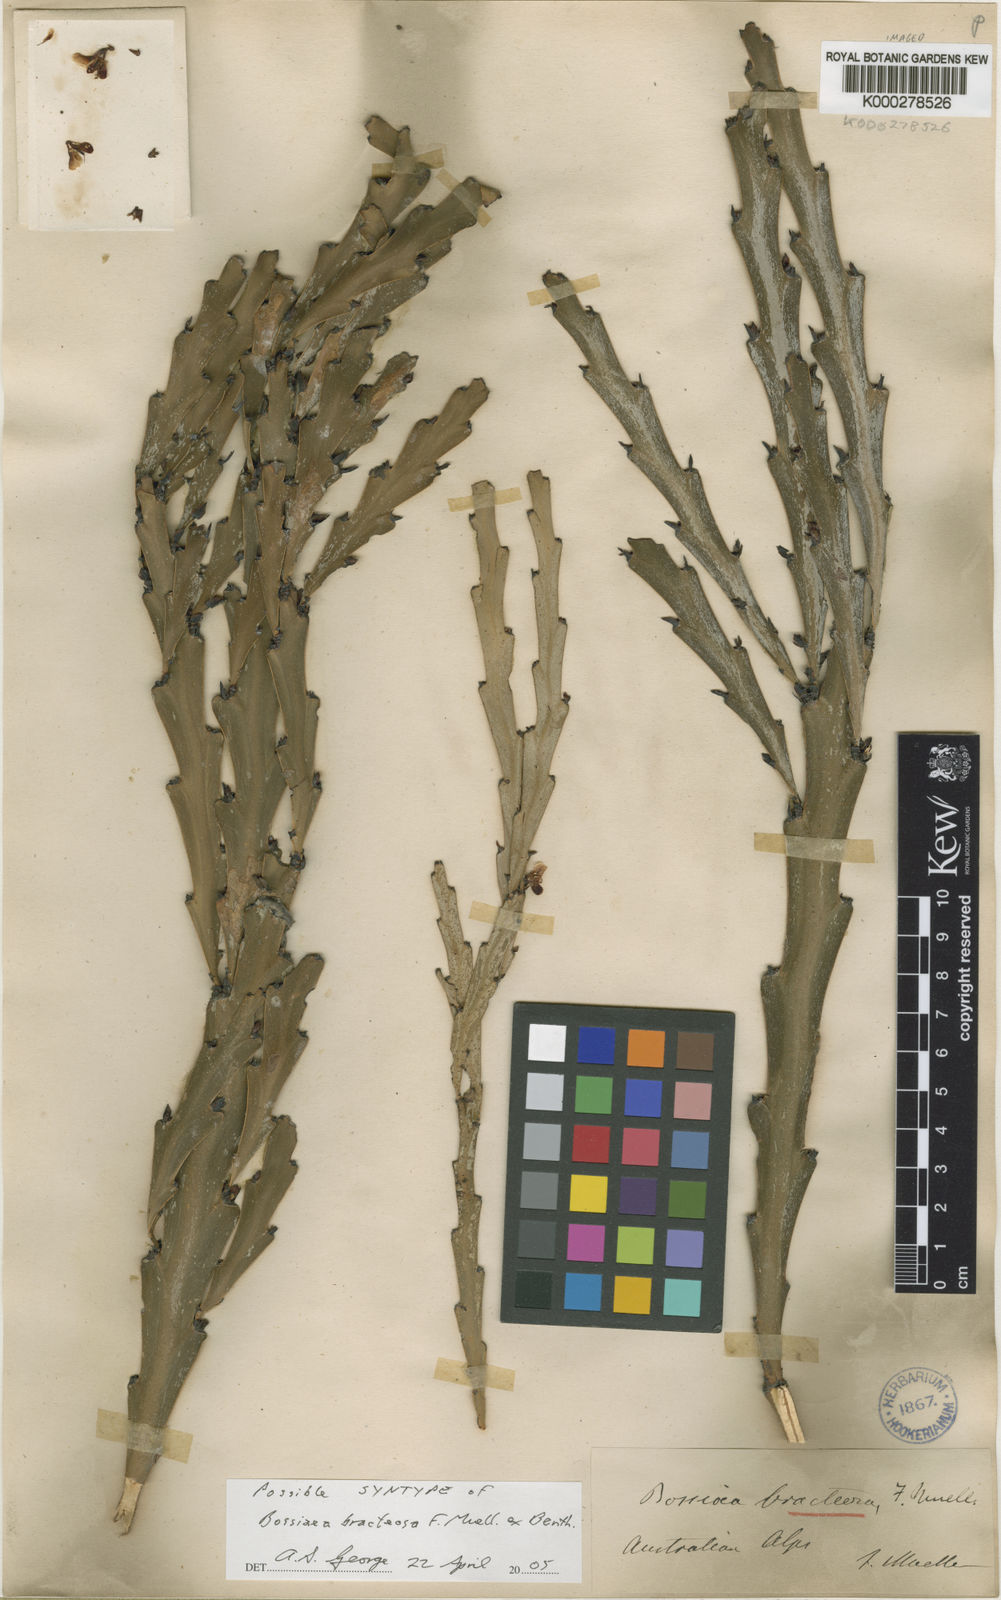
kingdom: Plantae
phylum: Tracheophyta
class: Magnoliopsida
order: Fabales
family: Fabaceae
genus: Bossiaea
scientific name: Bossiaea bracteosa
